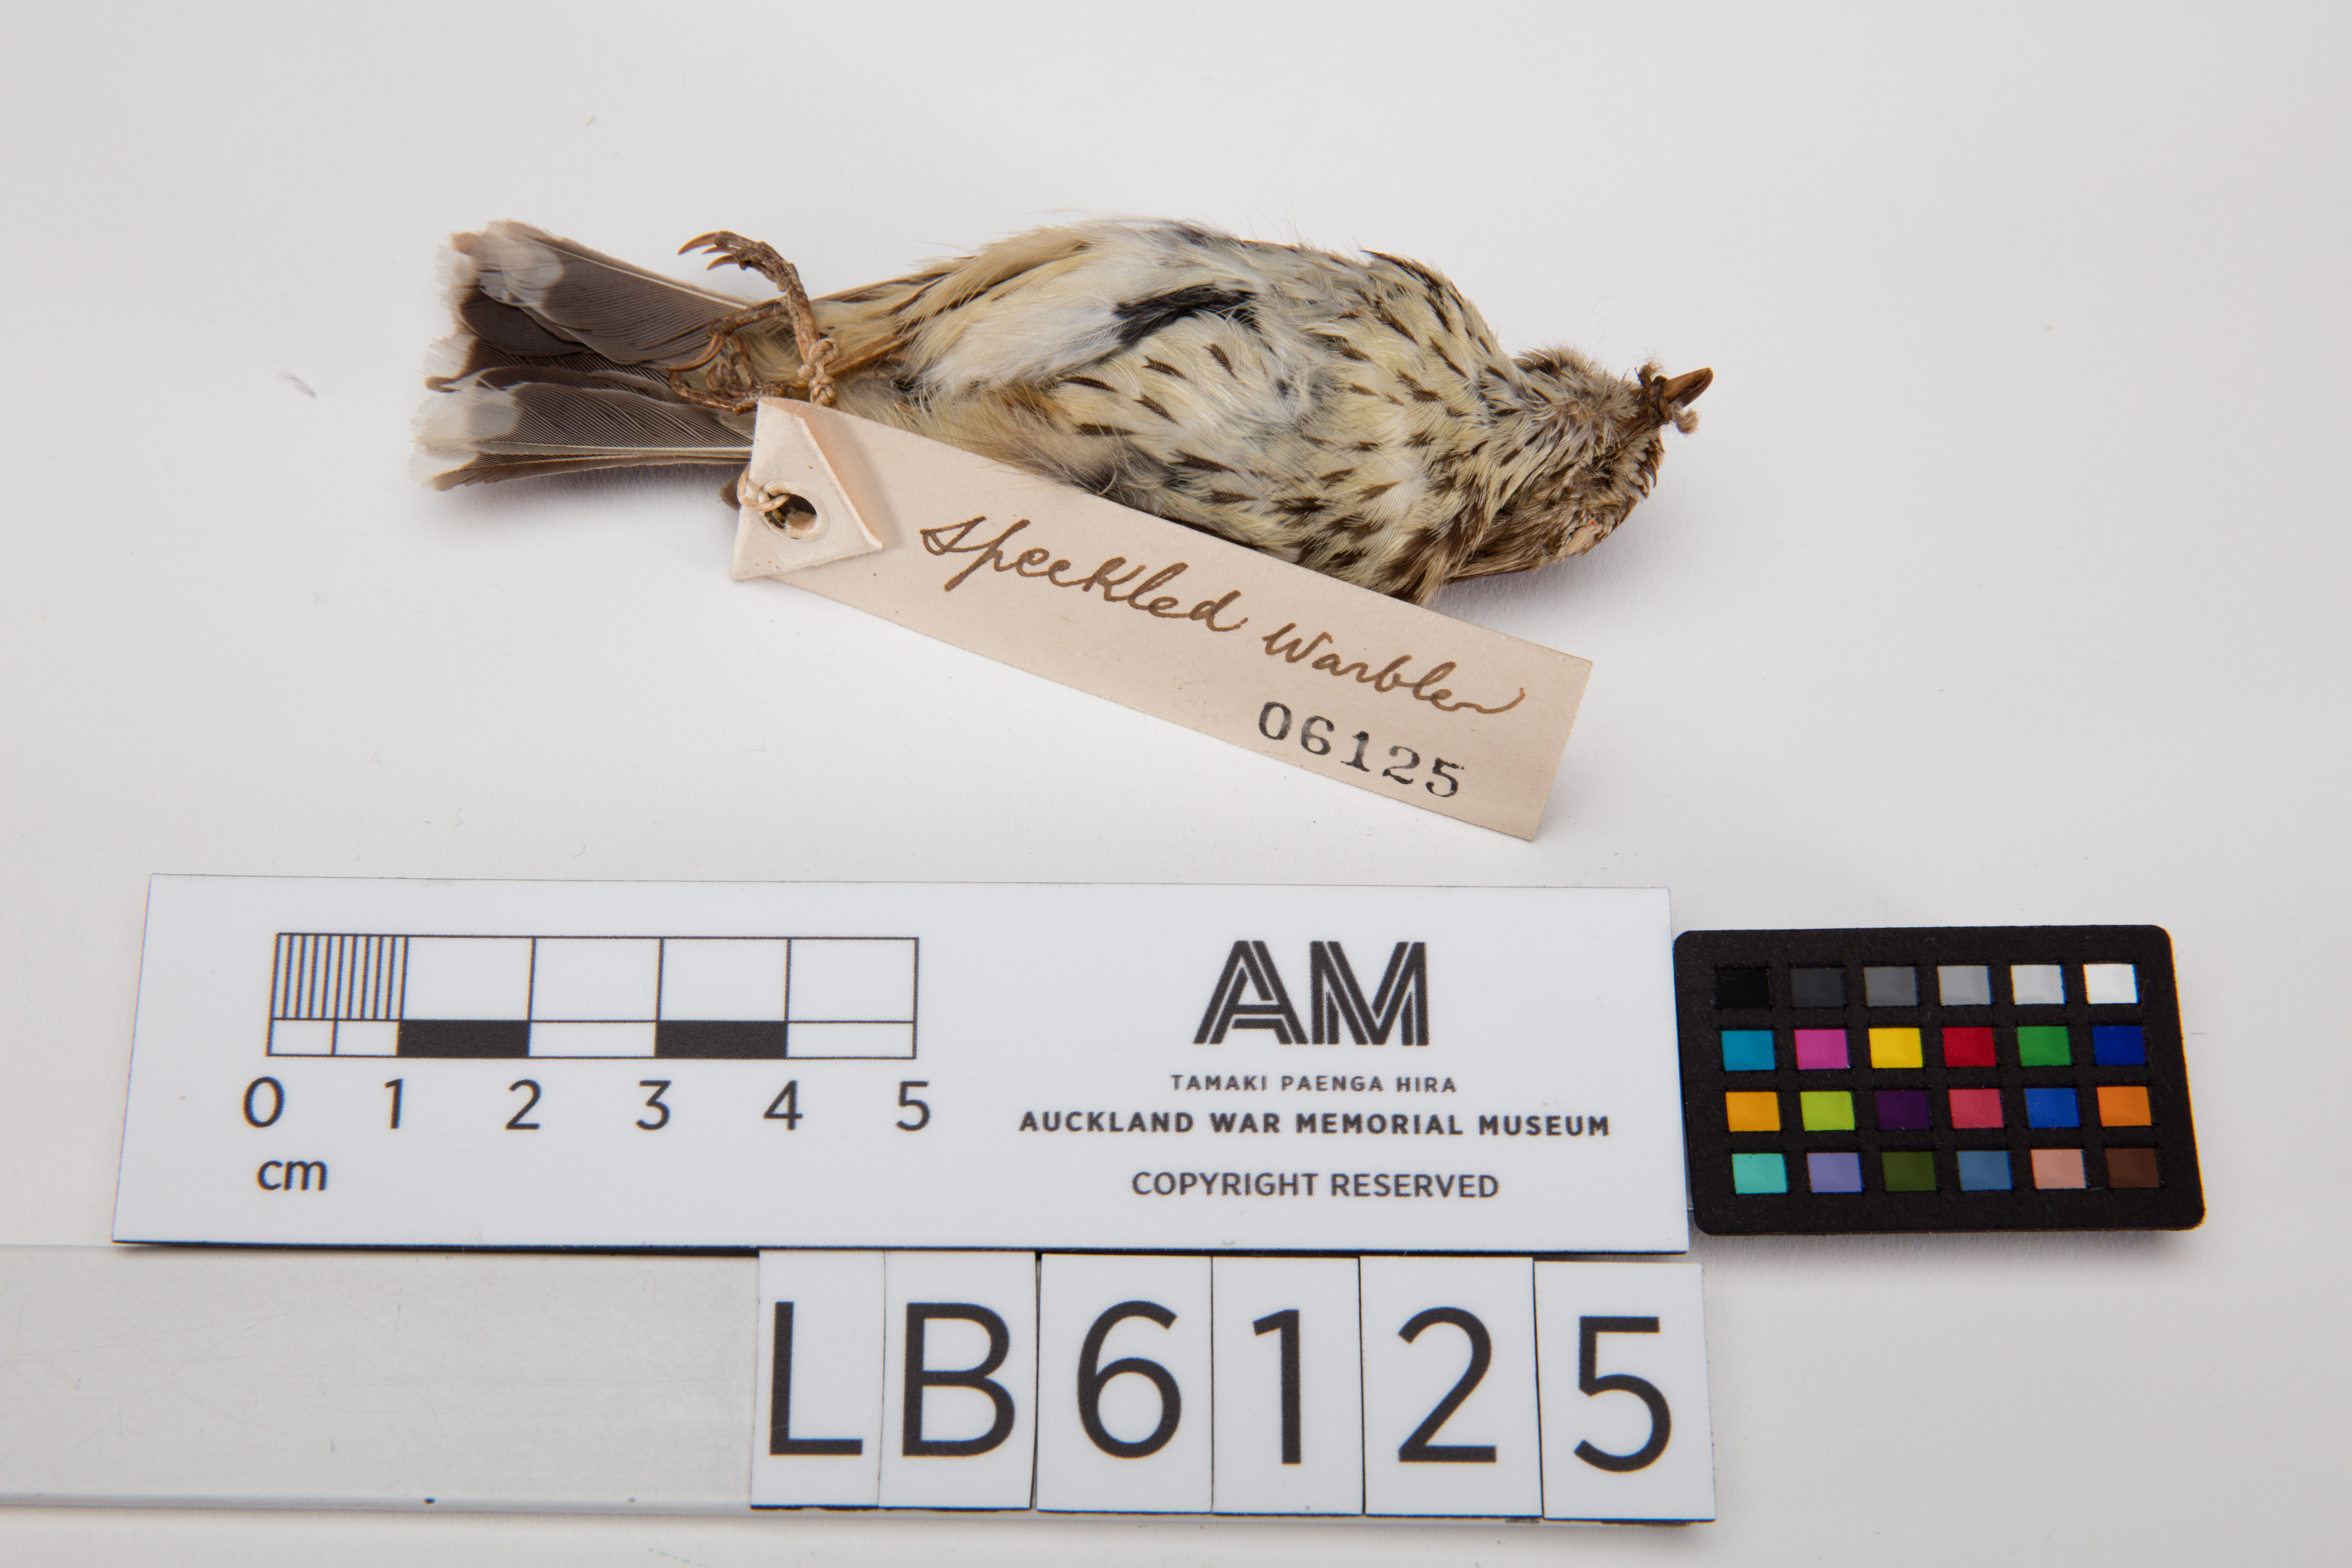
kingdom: Animalia
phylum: Chordata
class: Aves
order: Passeriformes
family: Acanthizidae
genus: Pyrrholaemus
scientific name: Pyrrholaemus sagittatus
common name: Speckled warbler
